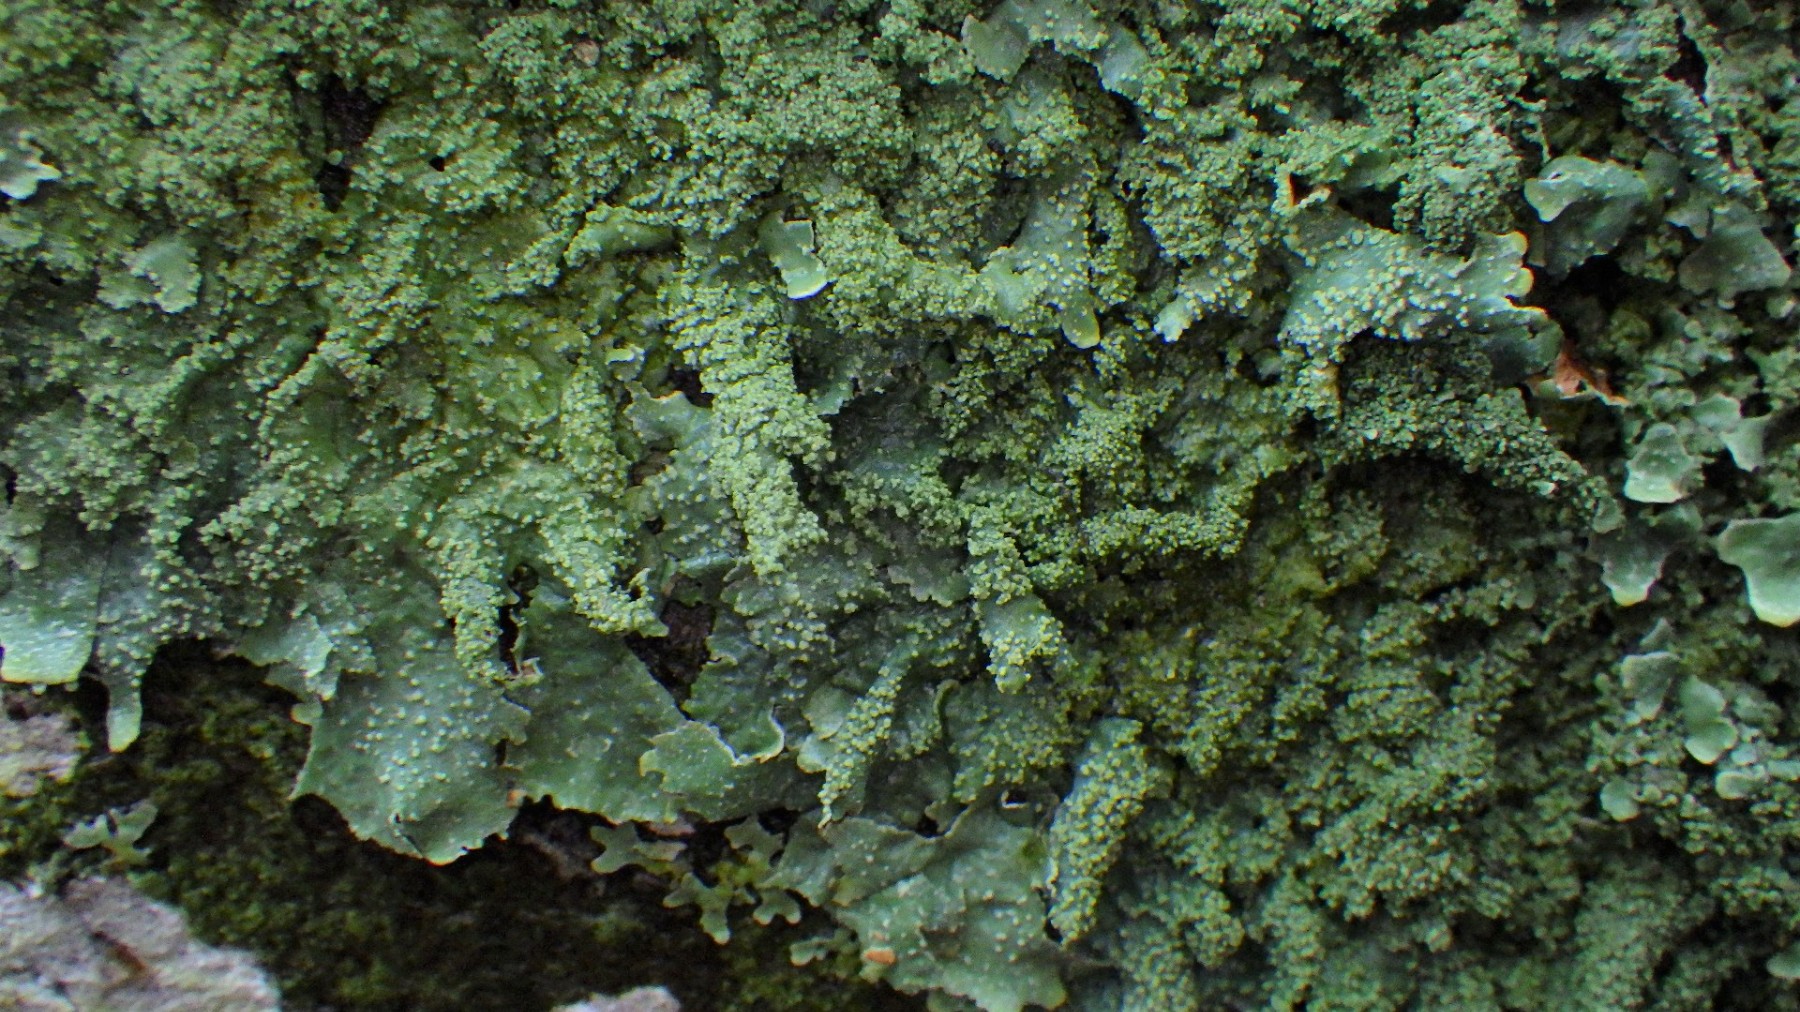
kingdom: Fungi
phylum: Ascomycota
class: Lecanoromycetes
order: Lecanorales
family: Parmeliaceae
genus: Parmelia
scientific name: Parmelia submontana
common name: langlobet skållav
